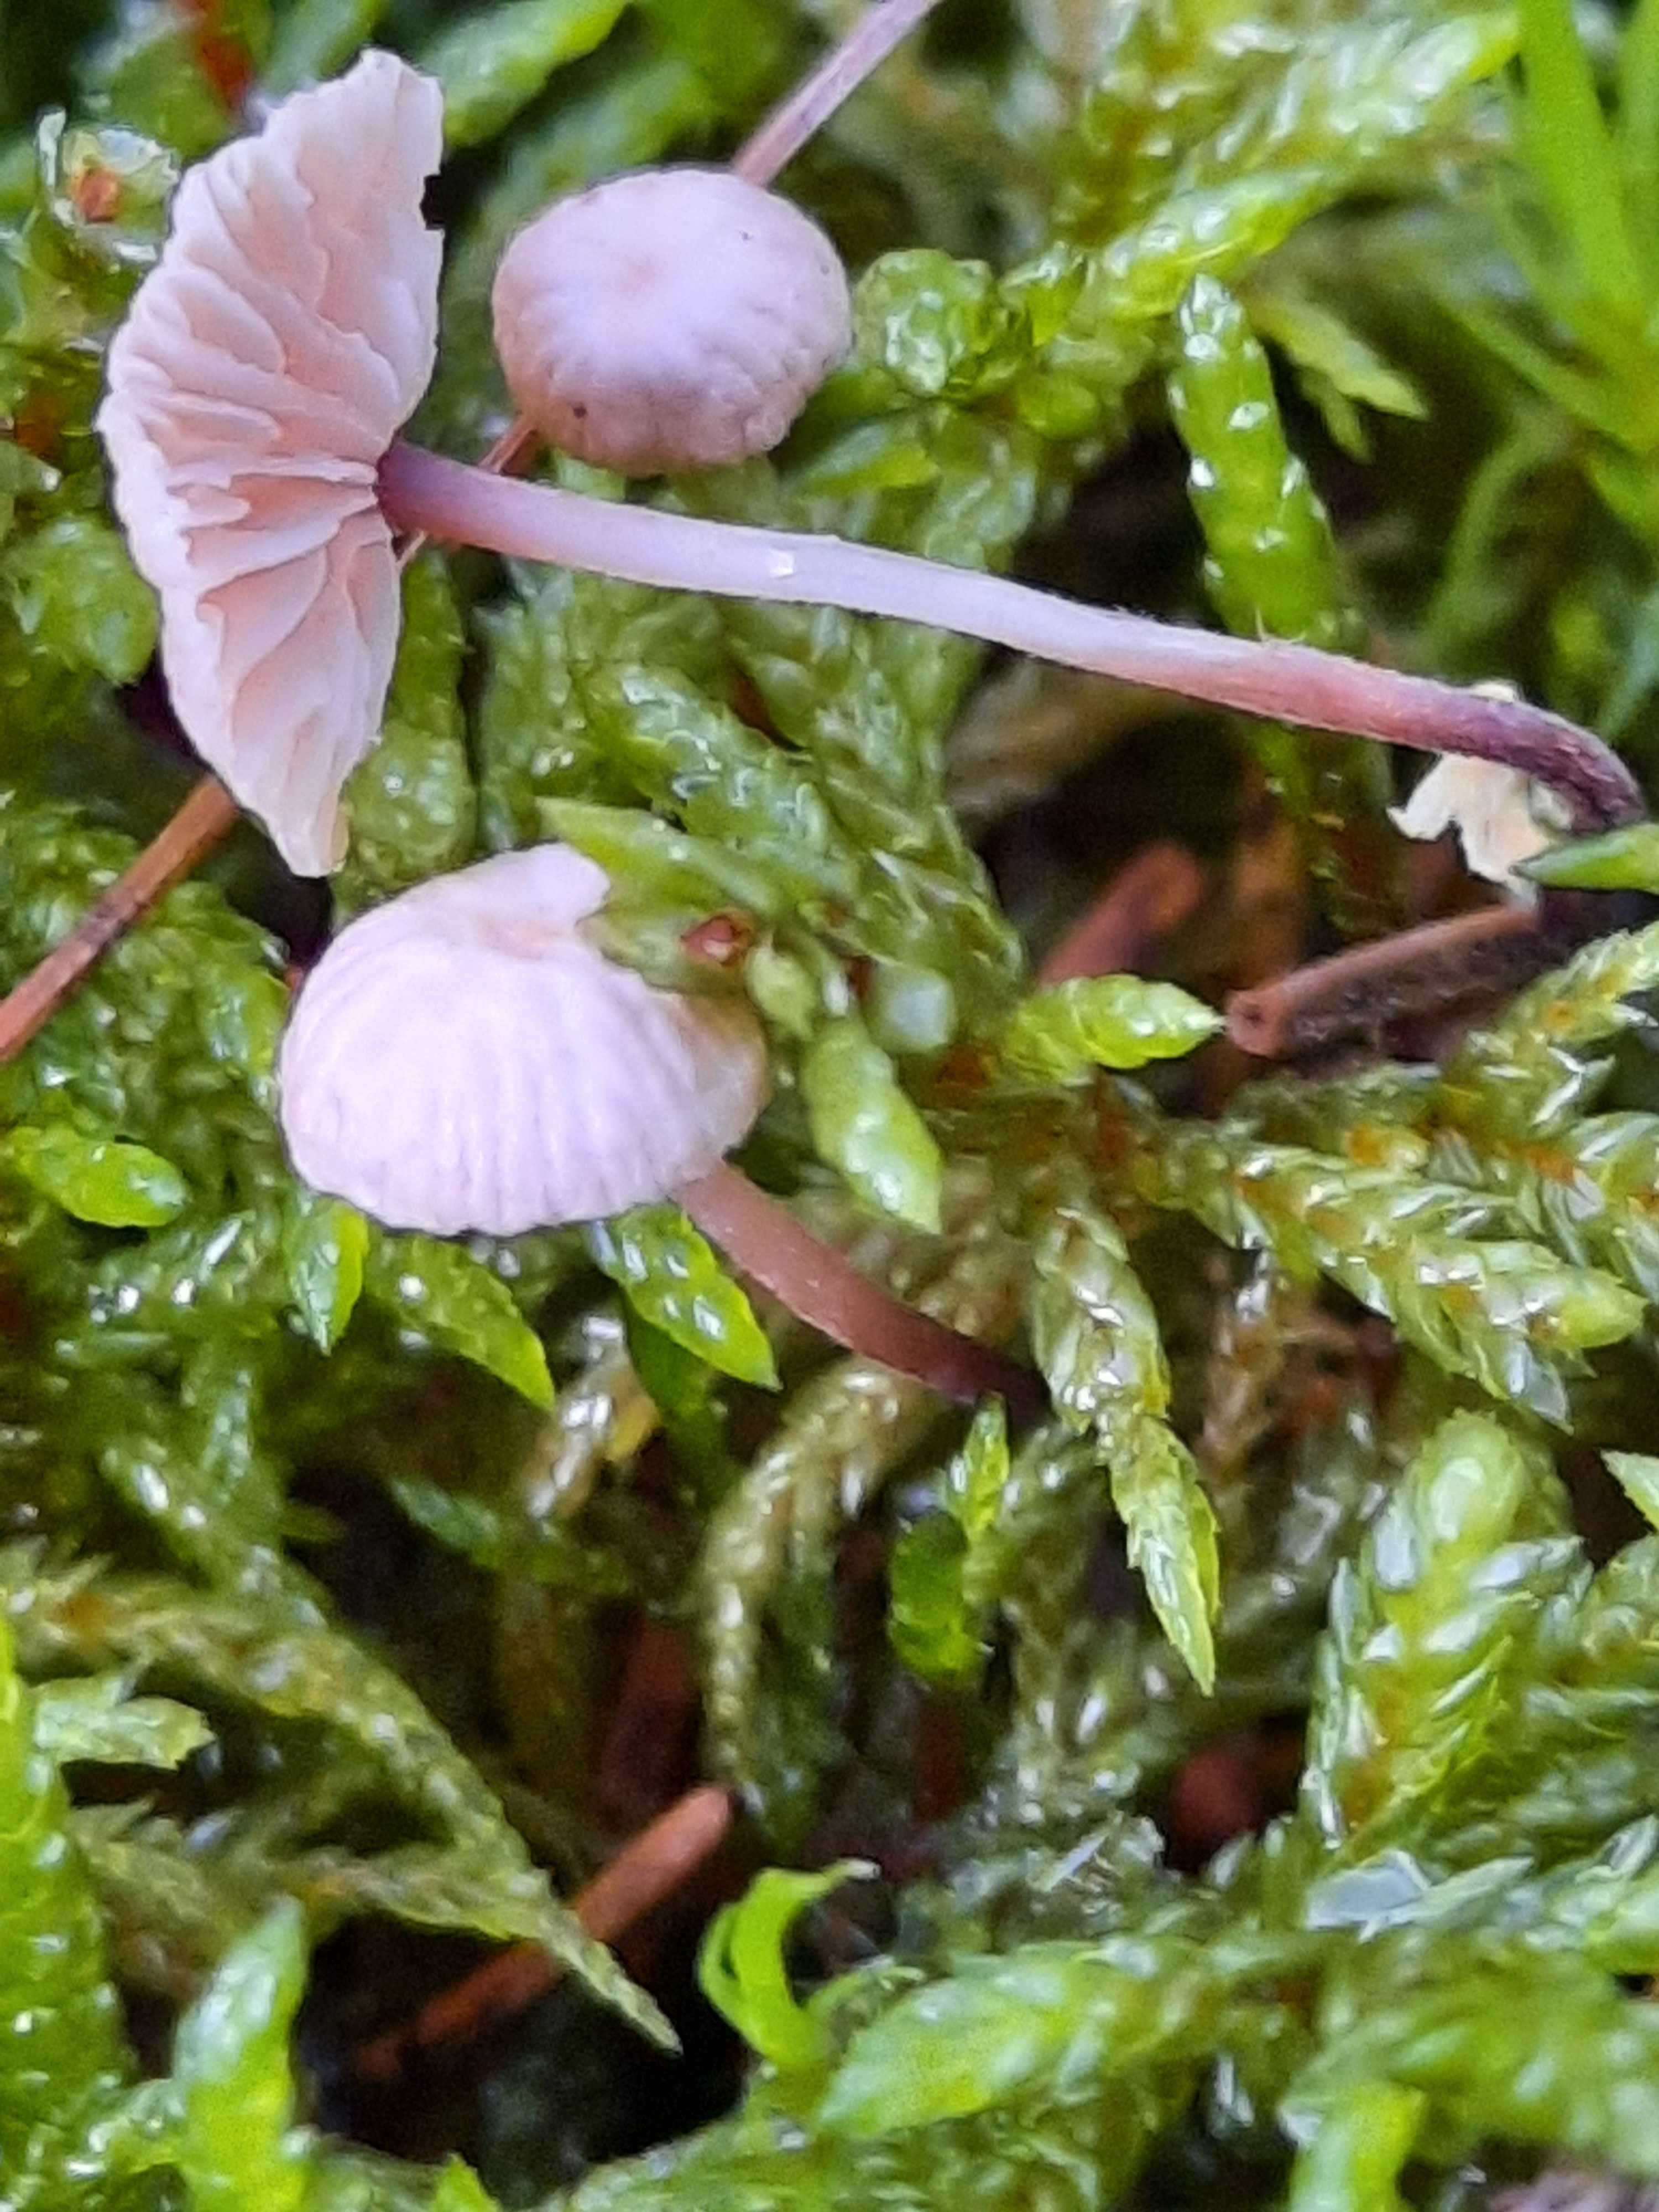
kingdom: Fungi
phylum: Basidiomycota
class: Agaricomycetes
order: Agaricales
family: Omphalotaceae
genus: Paragymnopus
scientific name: Paragymnopus perforans
